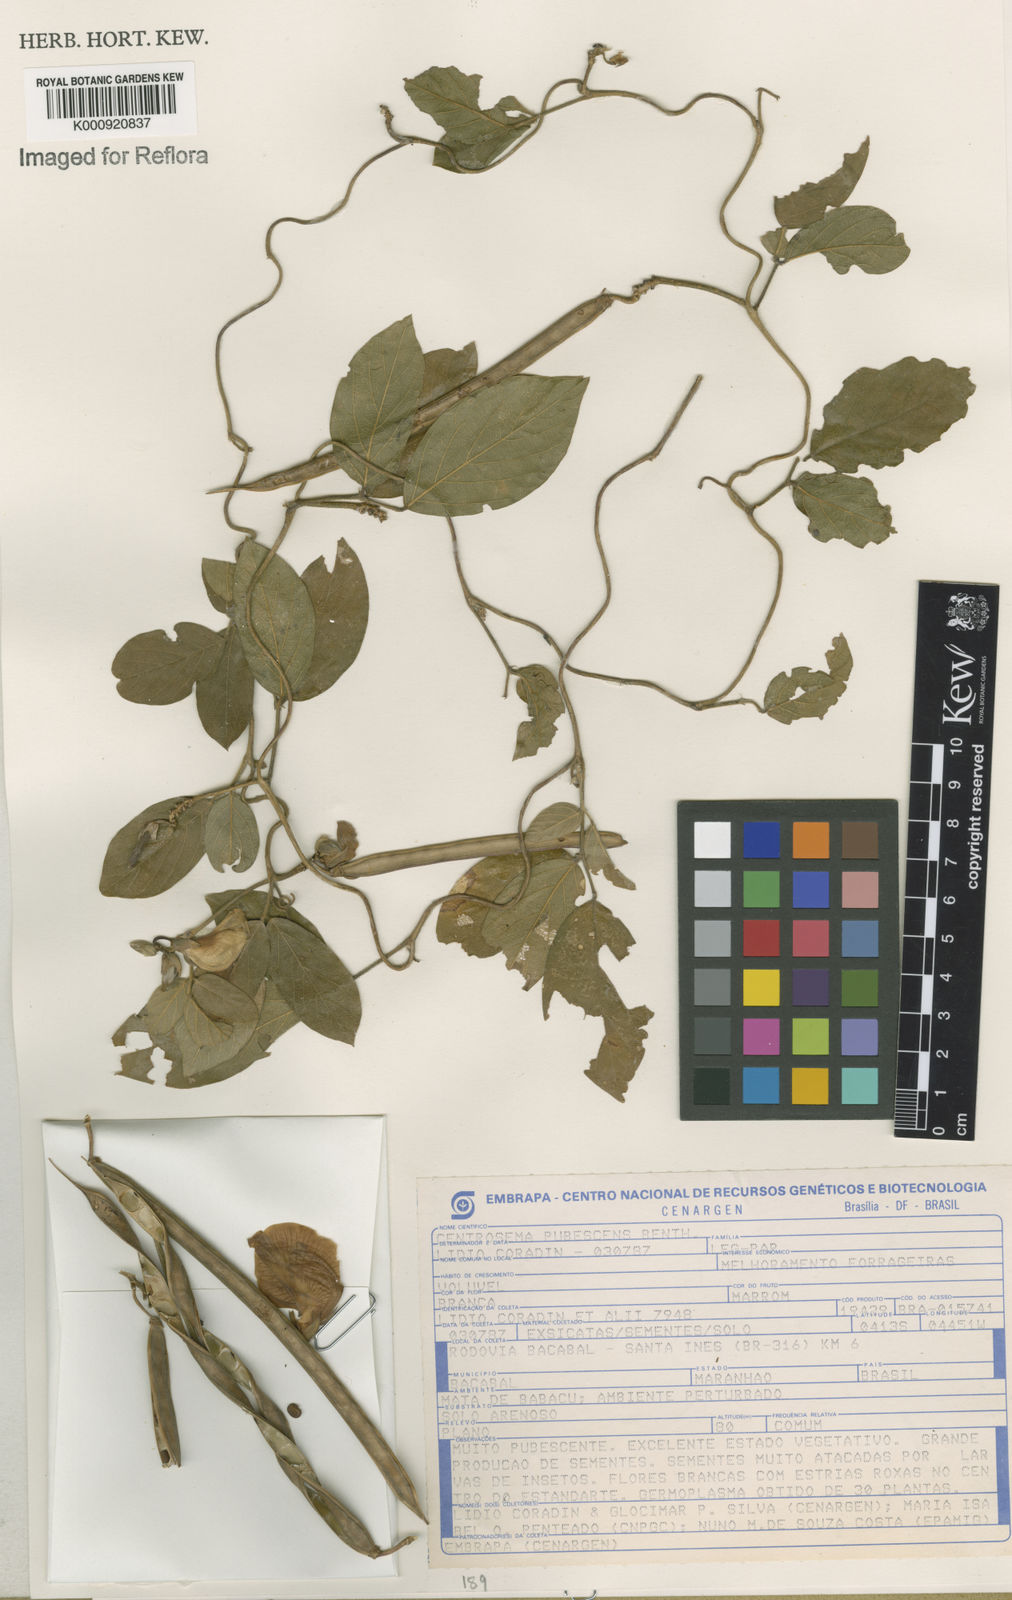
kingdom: Plantae
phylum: Tracheophyta
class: Magnoliopsida
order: Fabales
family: Fabaceae
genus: Centrosema
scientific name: Centrosema pubescens
